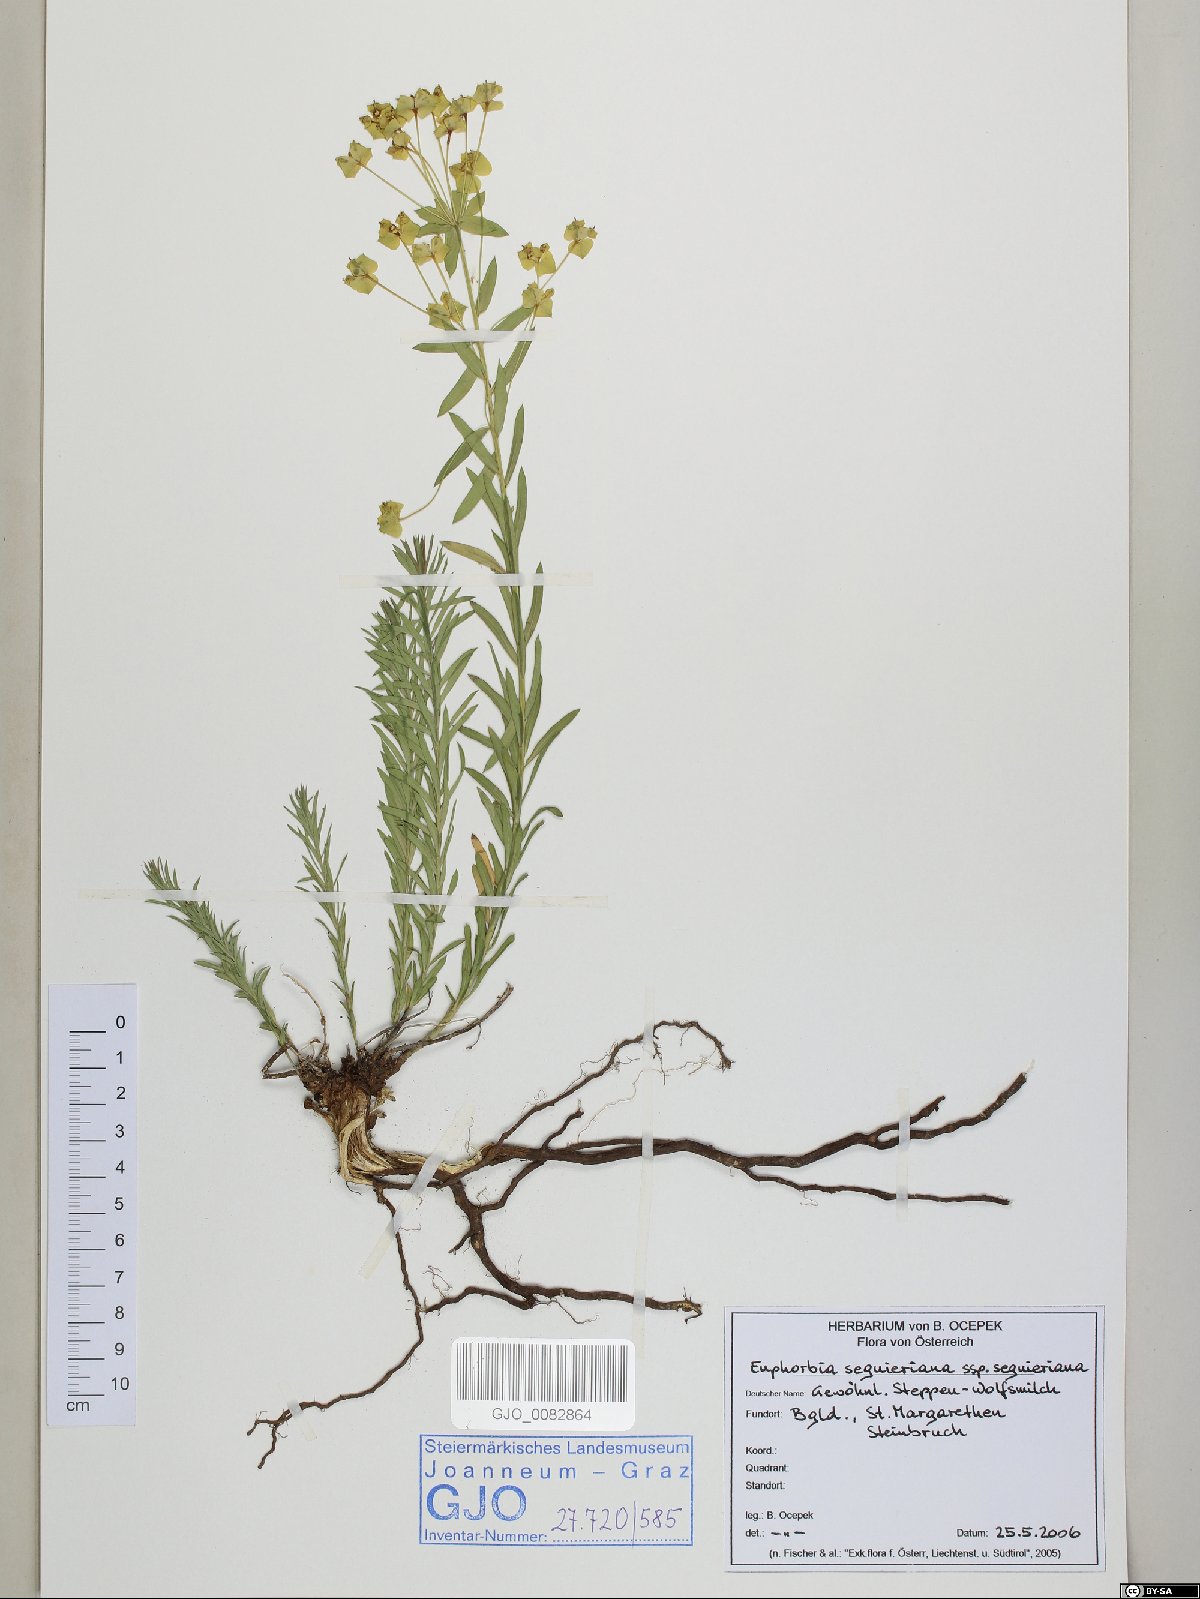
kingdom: Plantae
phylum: Tracheophyta
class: Magnoliopsida
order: Malpighiales
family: Euphorbiaceae
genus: Euphorbia
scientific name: Euphorbia seguieriana
